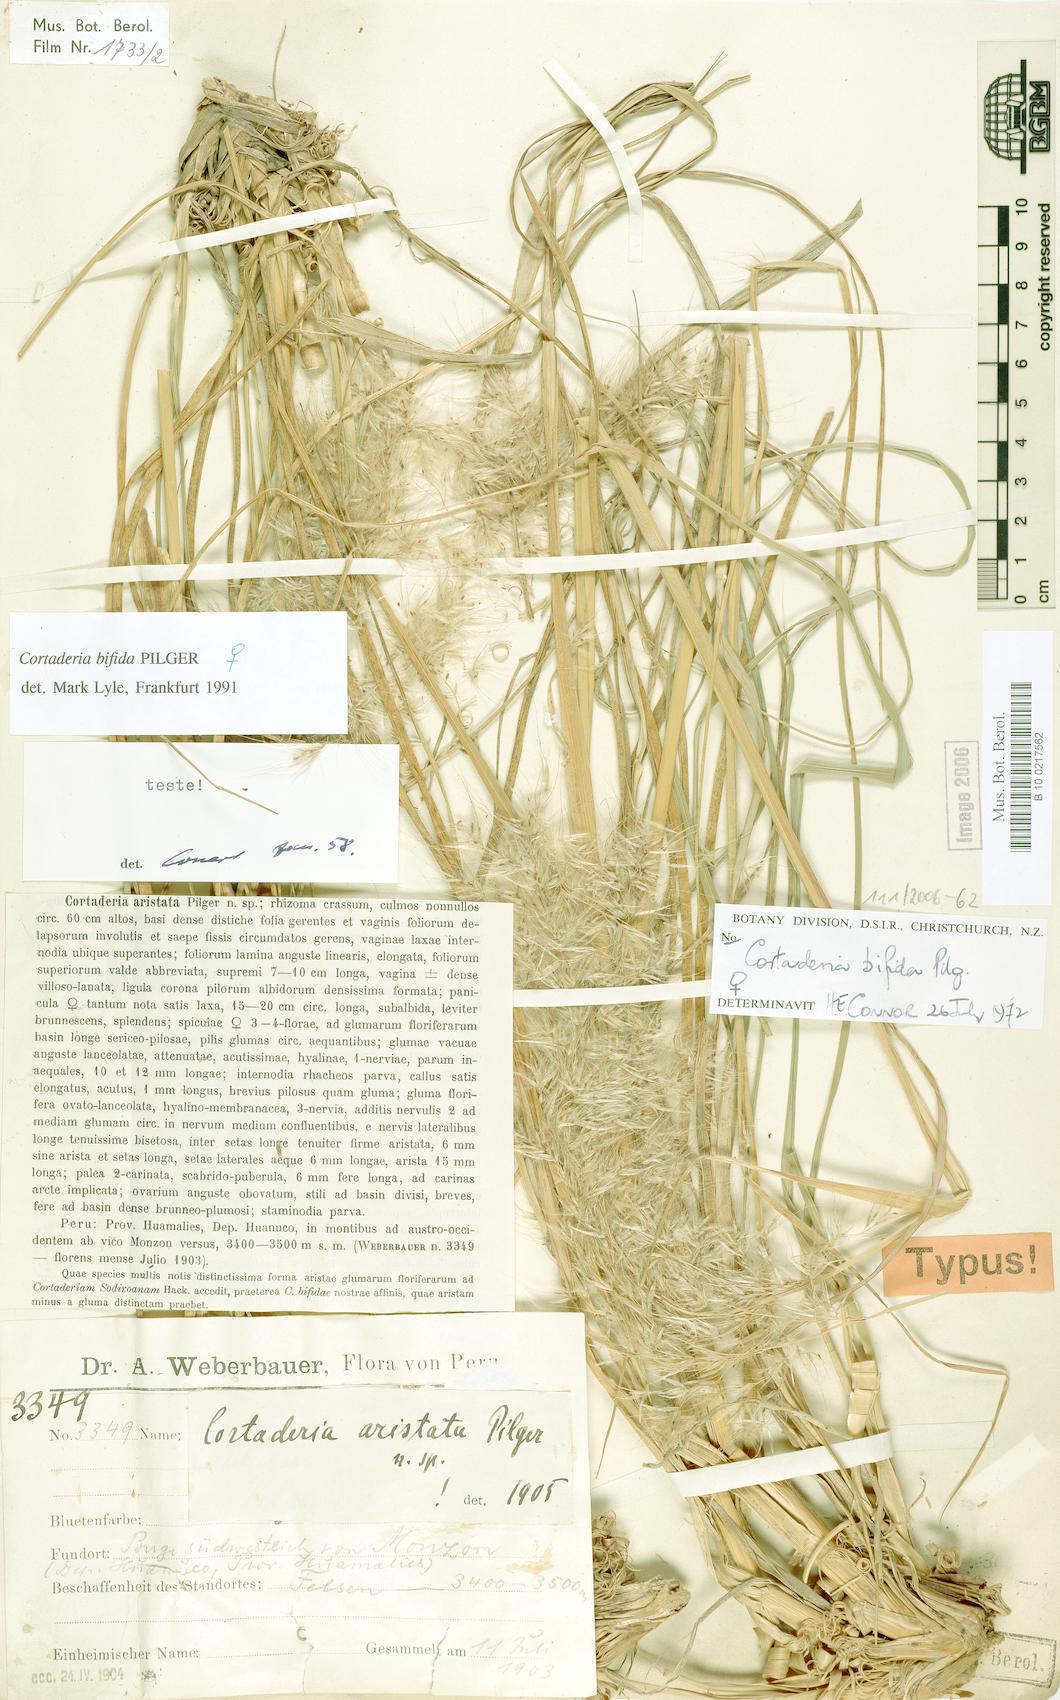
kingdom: Plantae
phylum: Tracheophyta
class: Liliopsida
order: Poales
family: Poaceae
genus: Cortaderia
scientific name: Cortaderia bifida
